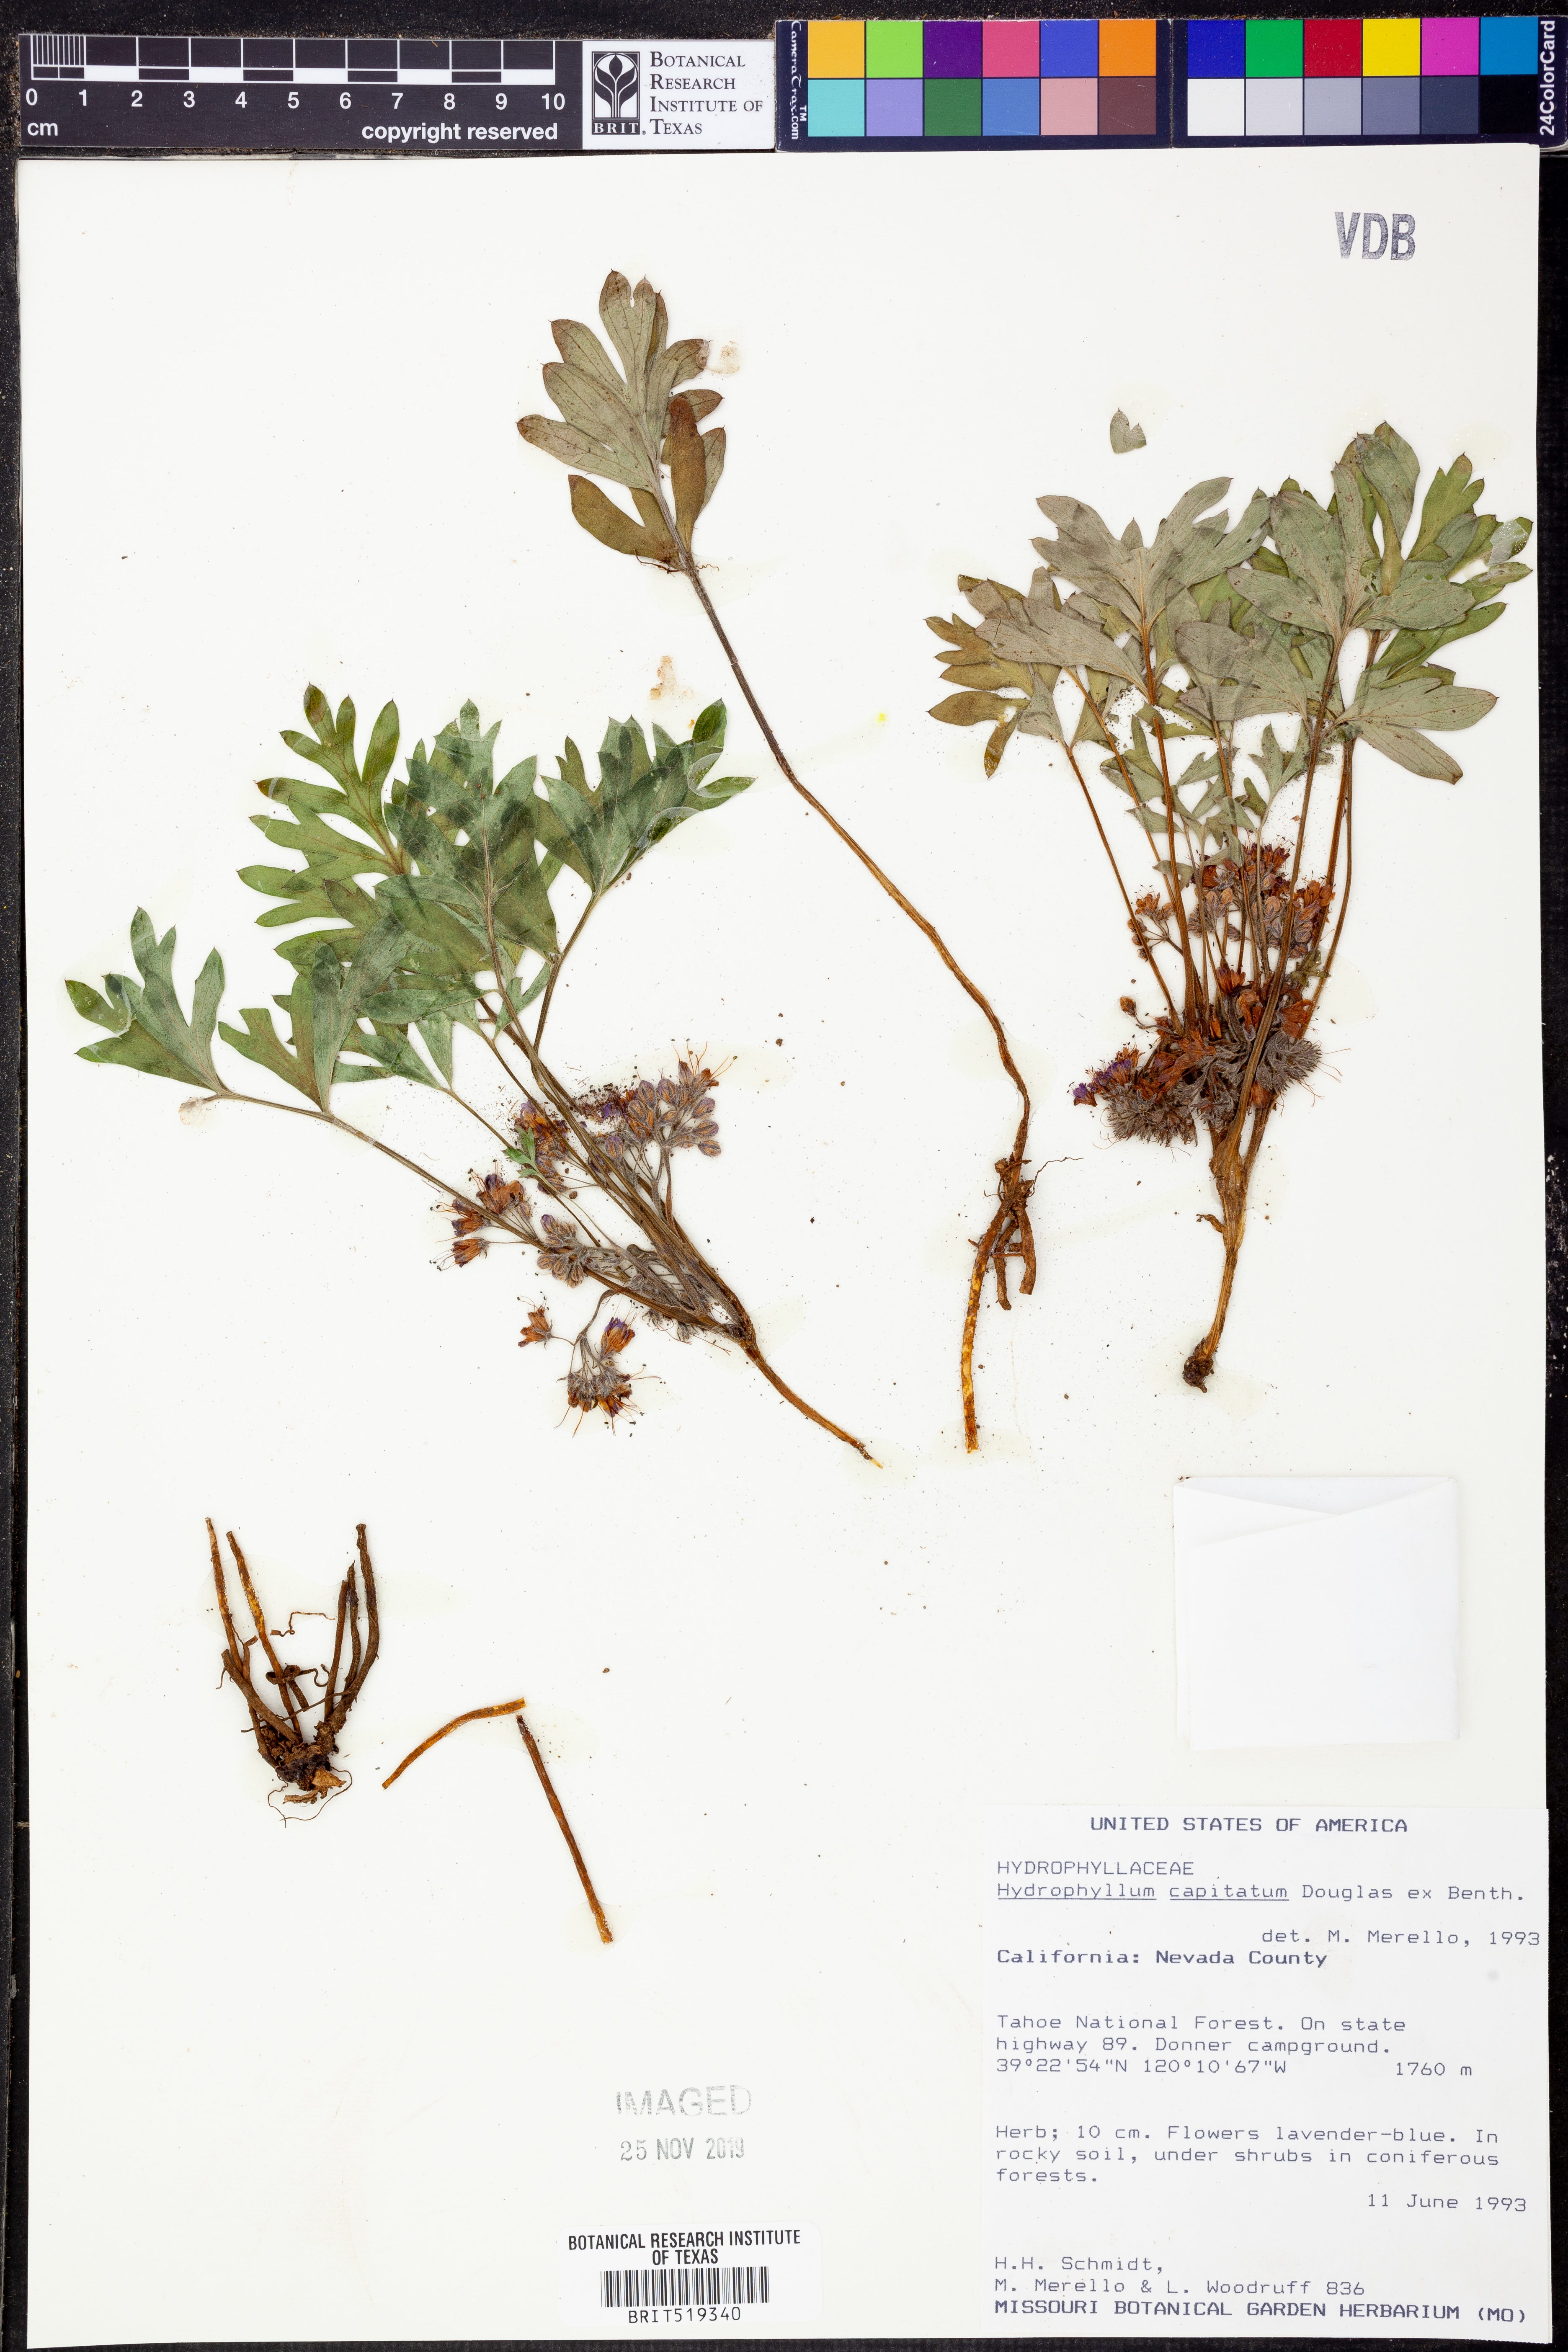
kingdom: Plantae
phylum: Tracheophyta
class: Magnoliopsida
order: Boraginales
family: Hydrophyllaceae
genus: Hydrophyllum
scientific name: Hydrophyllum capitatum
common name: Woollen-breeches
